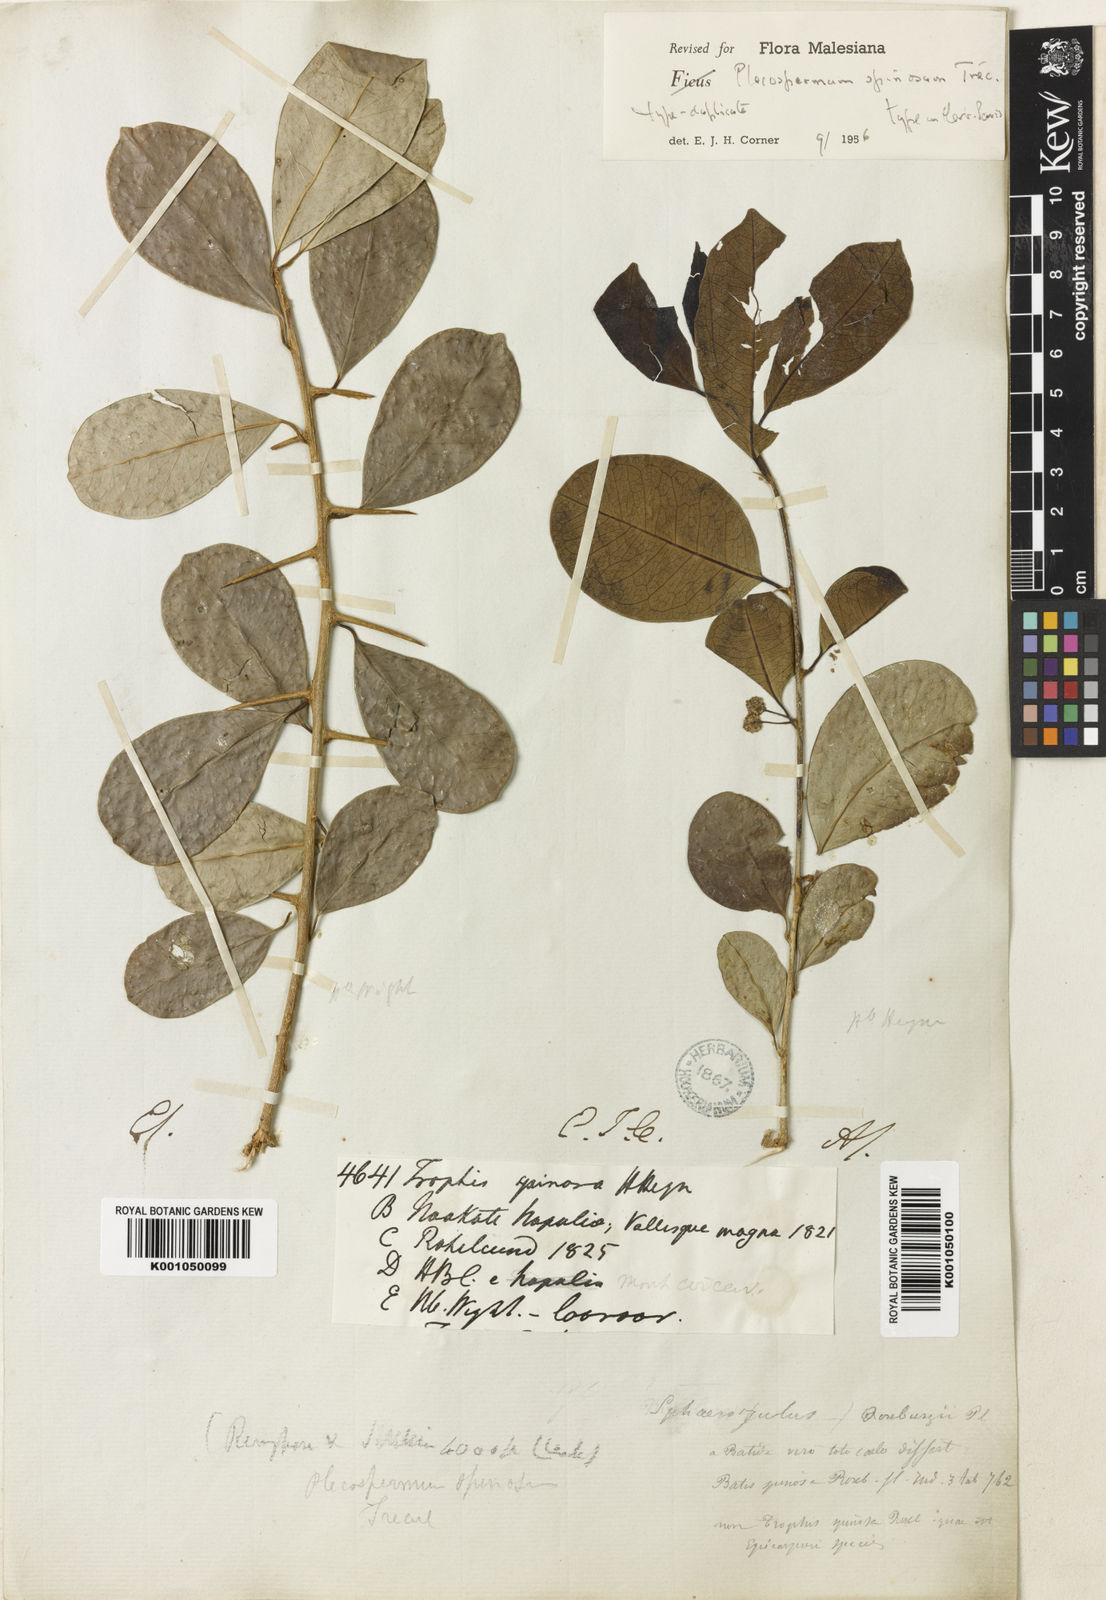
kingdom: Plantae
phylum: Tracheophyta
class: Magnoliopsida
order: Rosales
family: Moraceae
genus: Maclura
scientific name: Maclura spinosa
